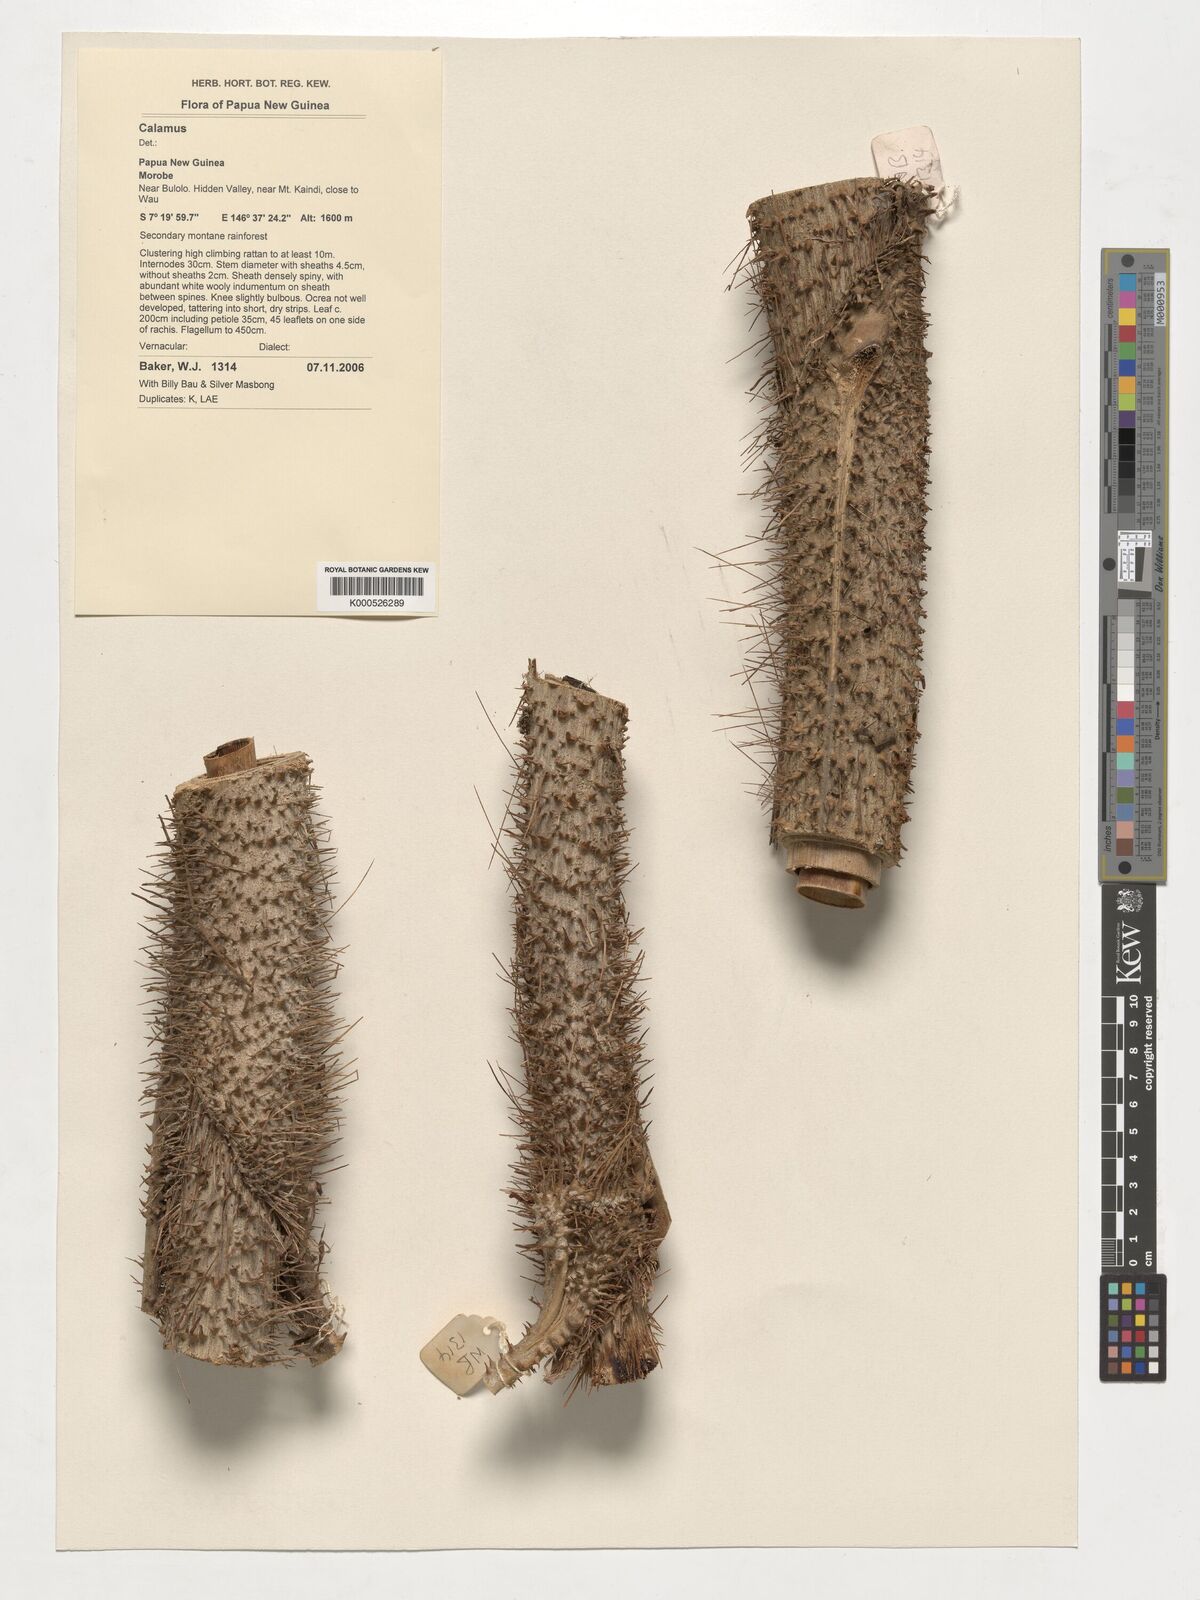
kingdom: Plantae
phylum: Tracheophyta
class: Liliopsida
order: Arecales
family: Arecaceae
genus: Calamus
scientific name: Calamus
